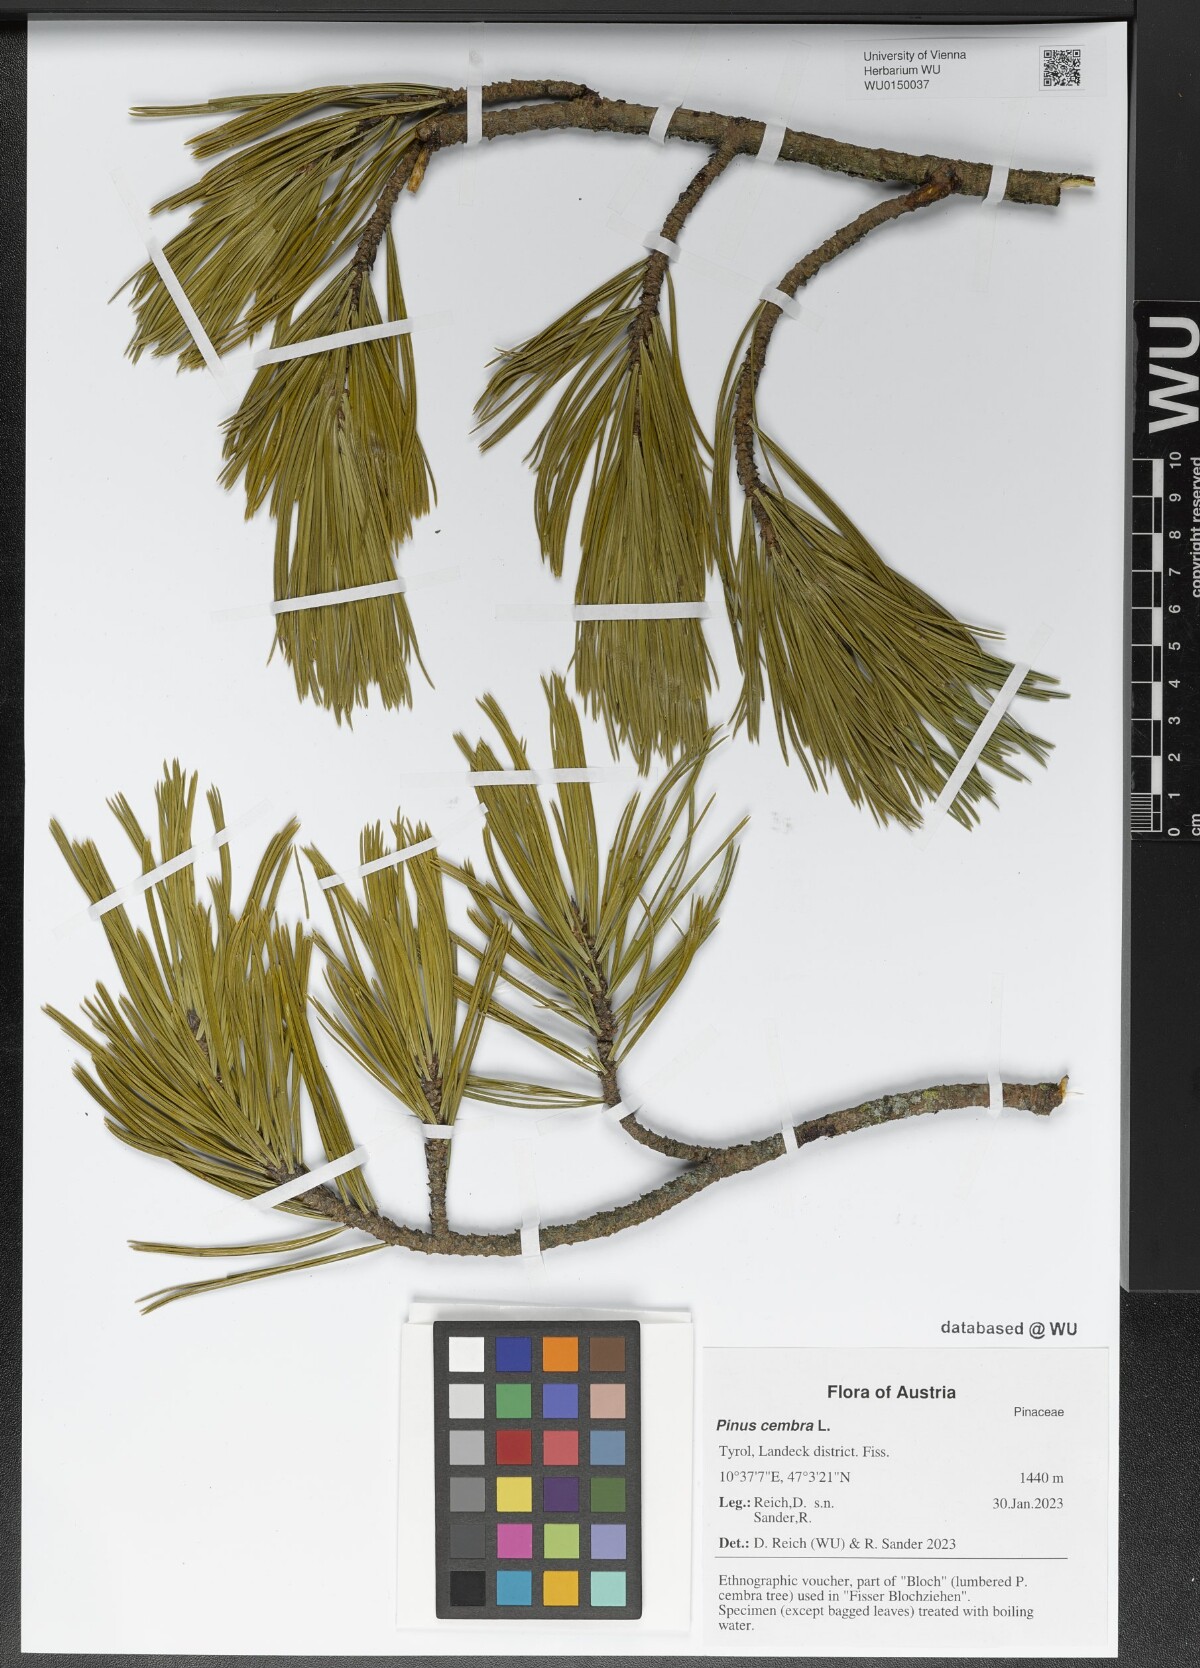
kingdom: Plantae
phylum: Tracheophyta
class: Pinopsida
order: Pinales
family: Pinaceae
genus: Pinus
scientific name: Pinus cembra
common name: Arolla pine
